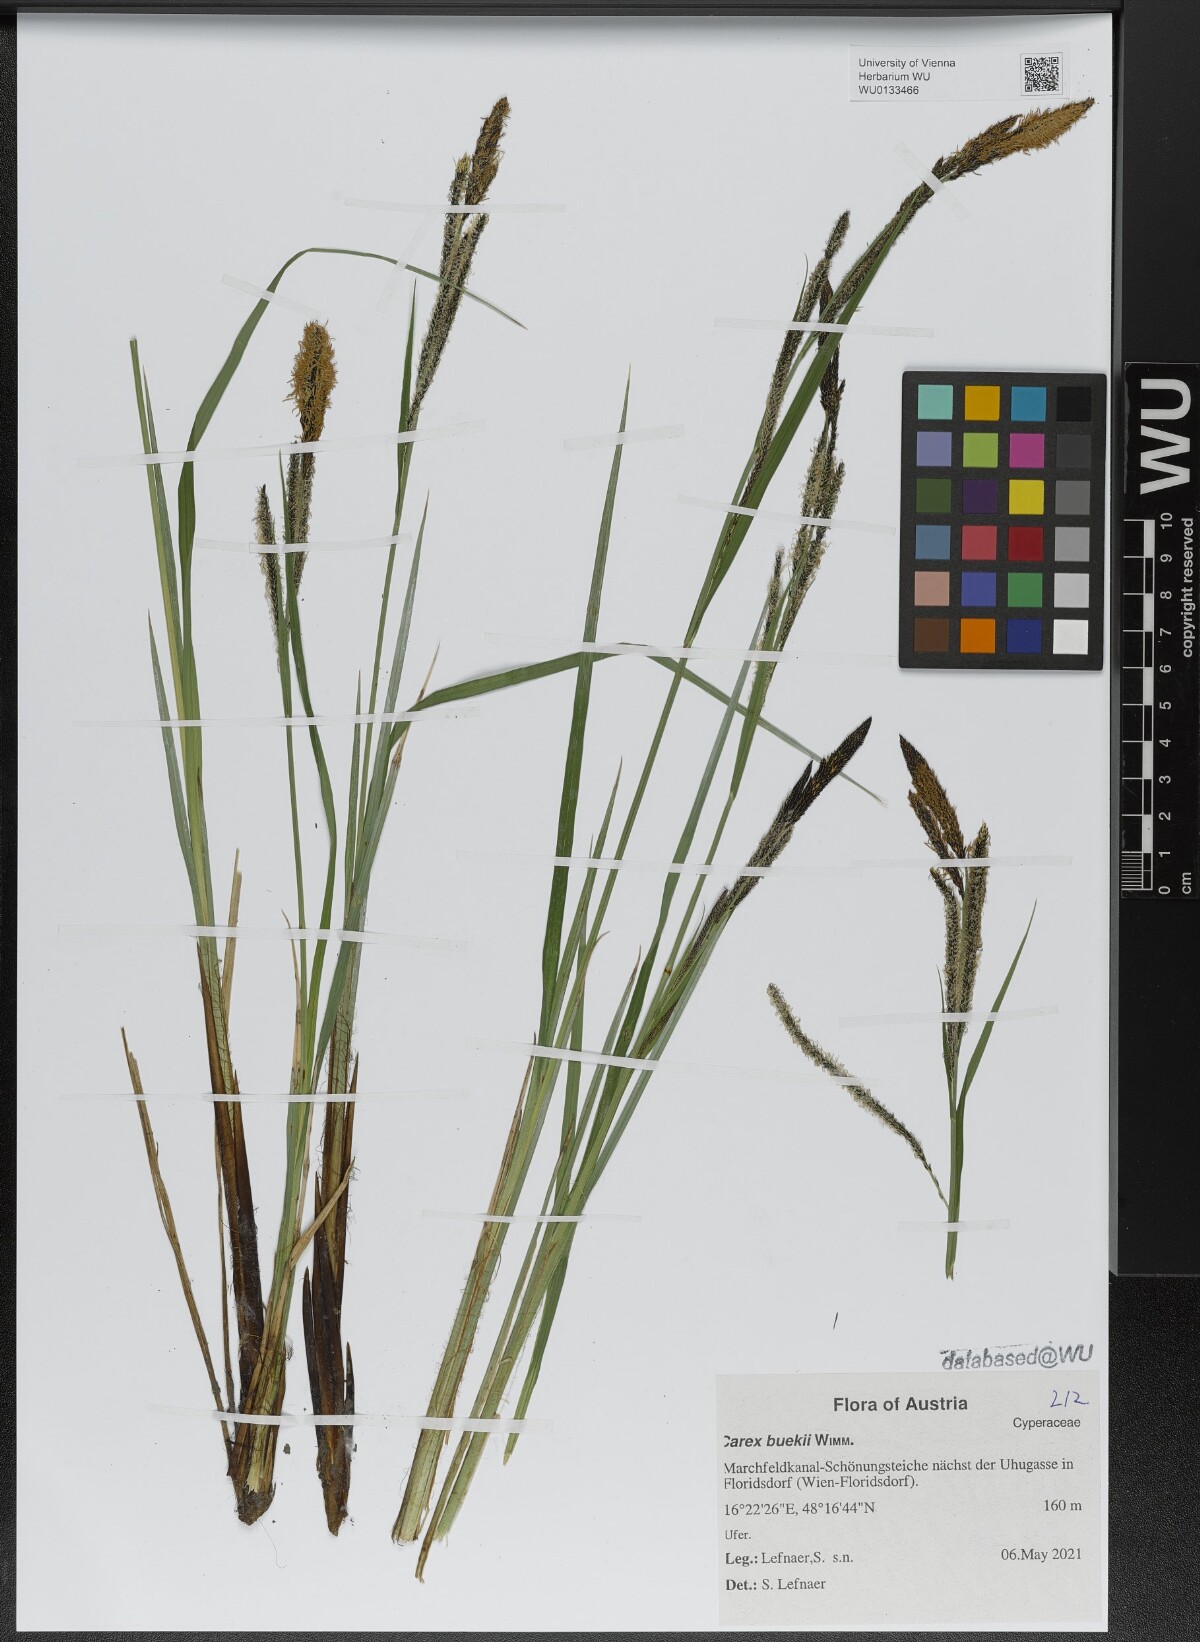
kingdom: Plantae
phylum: Tracheophyta
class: Liliopsida
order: Poales
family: Cyperaceae
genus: Carex
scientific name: Carex buekii
